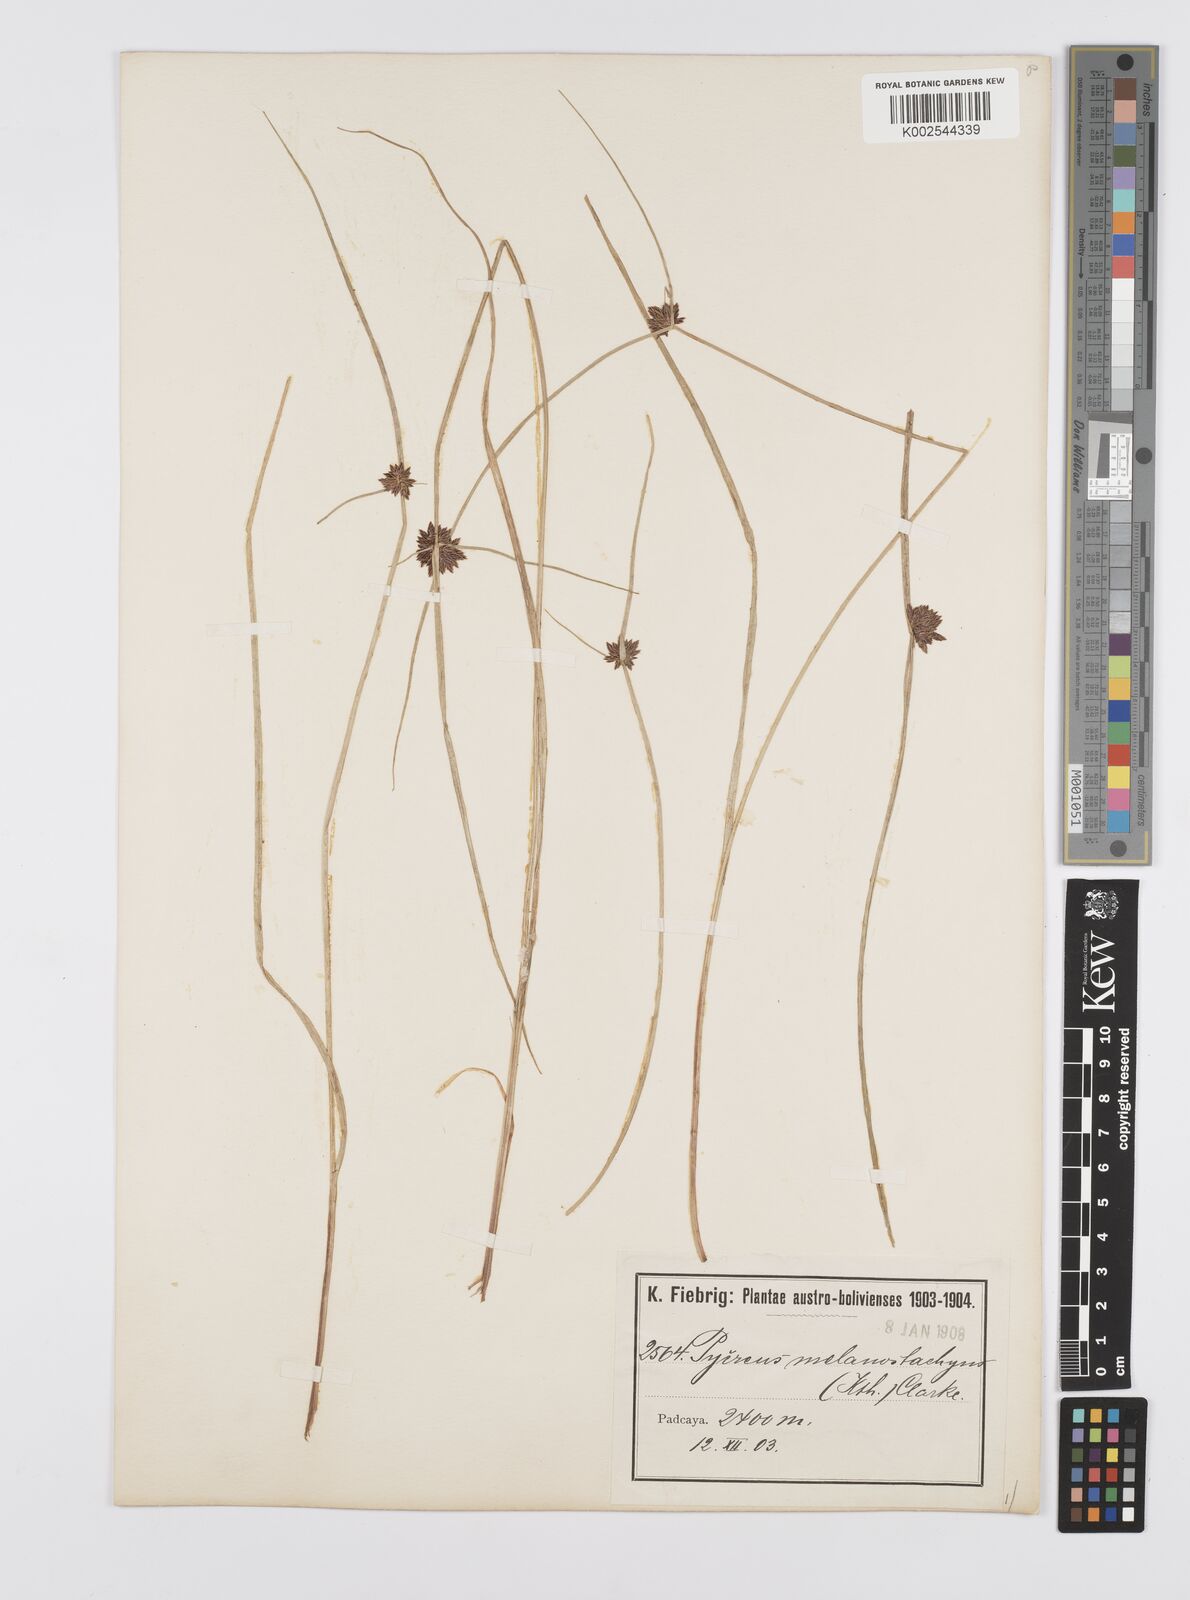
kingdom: Plantae
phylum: Tracheophyta
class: Liliopsida
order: Poales
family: Cyperaceae
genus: Cyperus
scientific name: Cyperus melanostachyus
